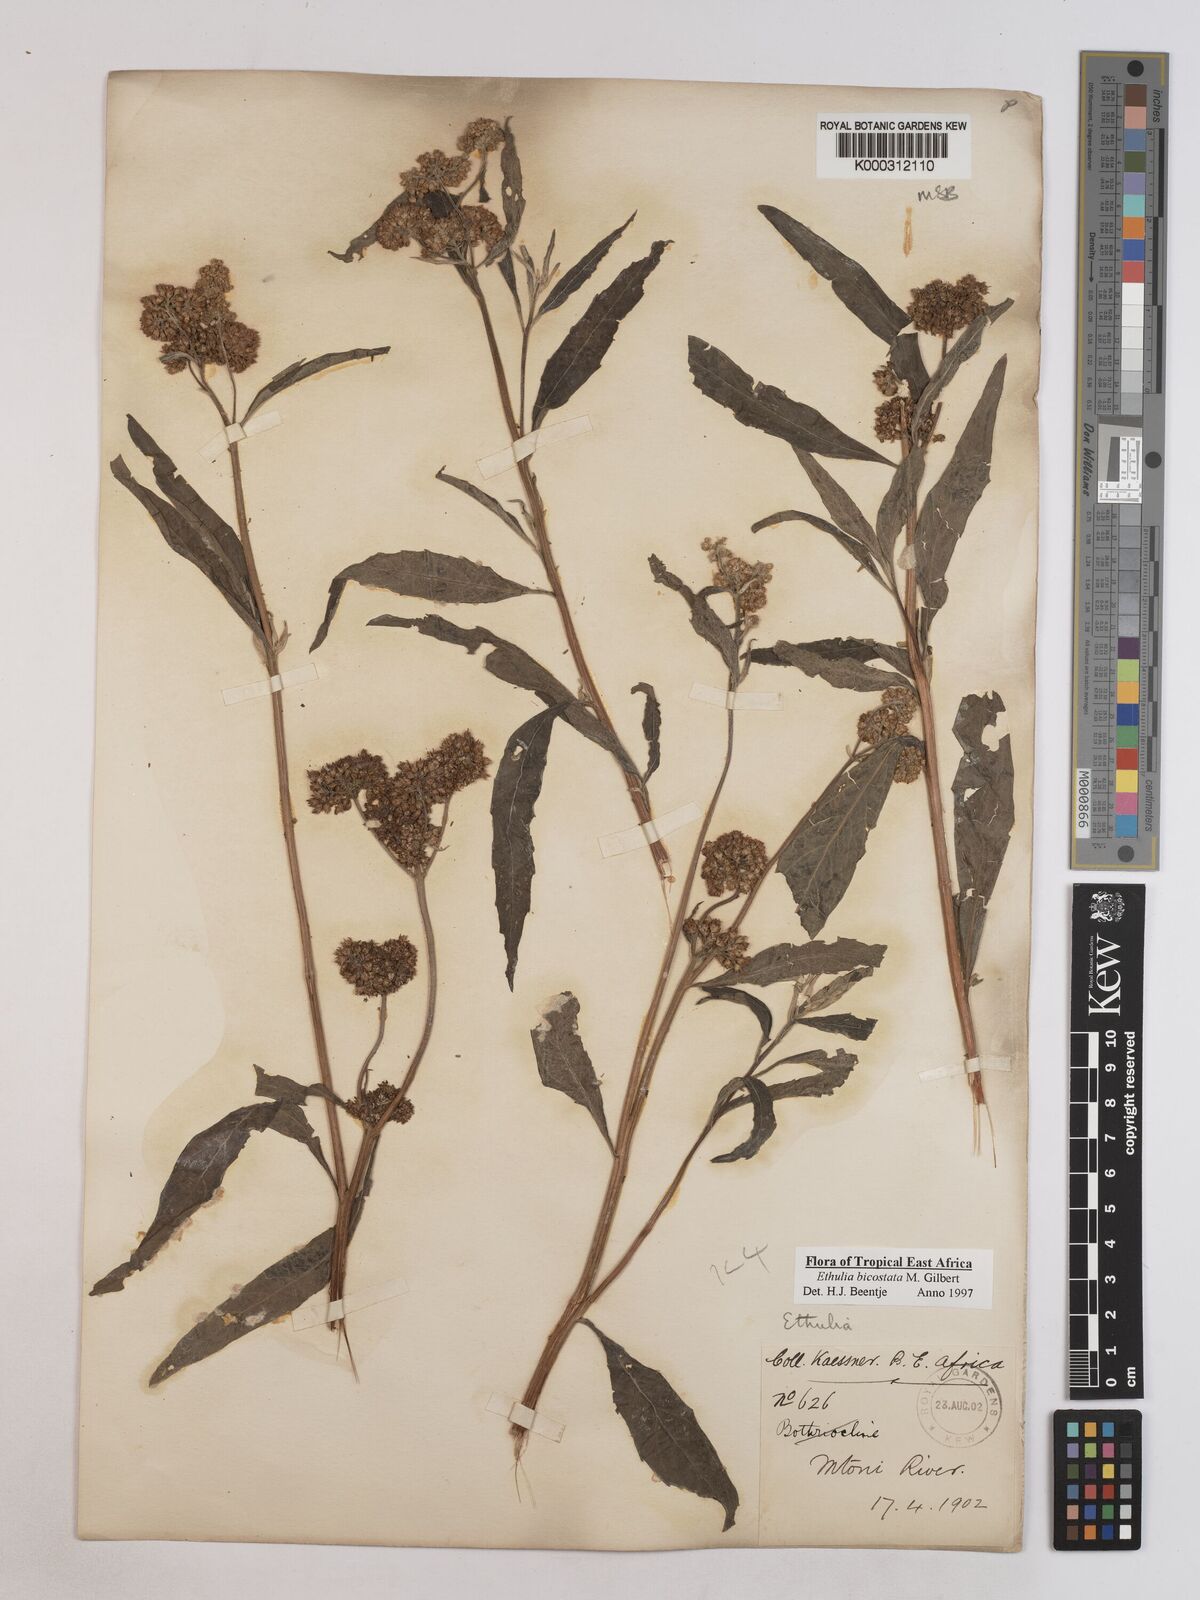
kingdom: Plantae
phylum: Tracheophyta
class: Magnoliopsida
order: Asterales
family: Asteraceae
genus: Ethulia
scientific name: Ethulia bicostata
